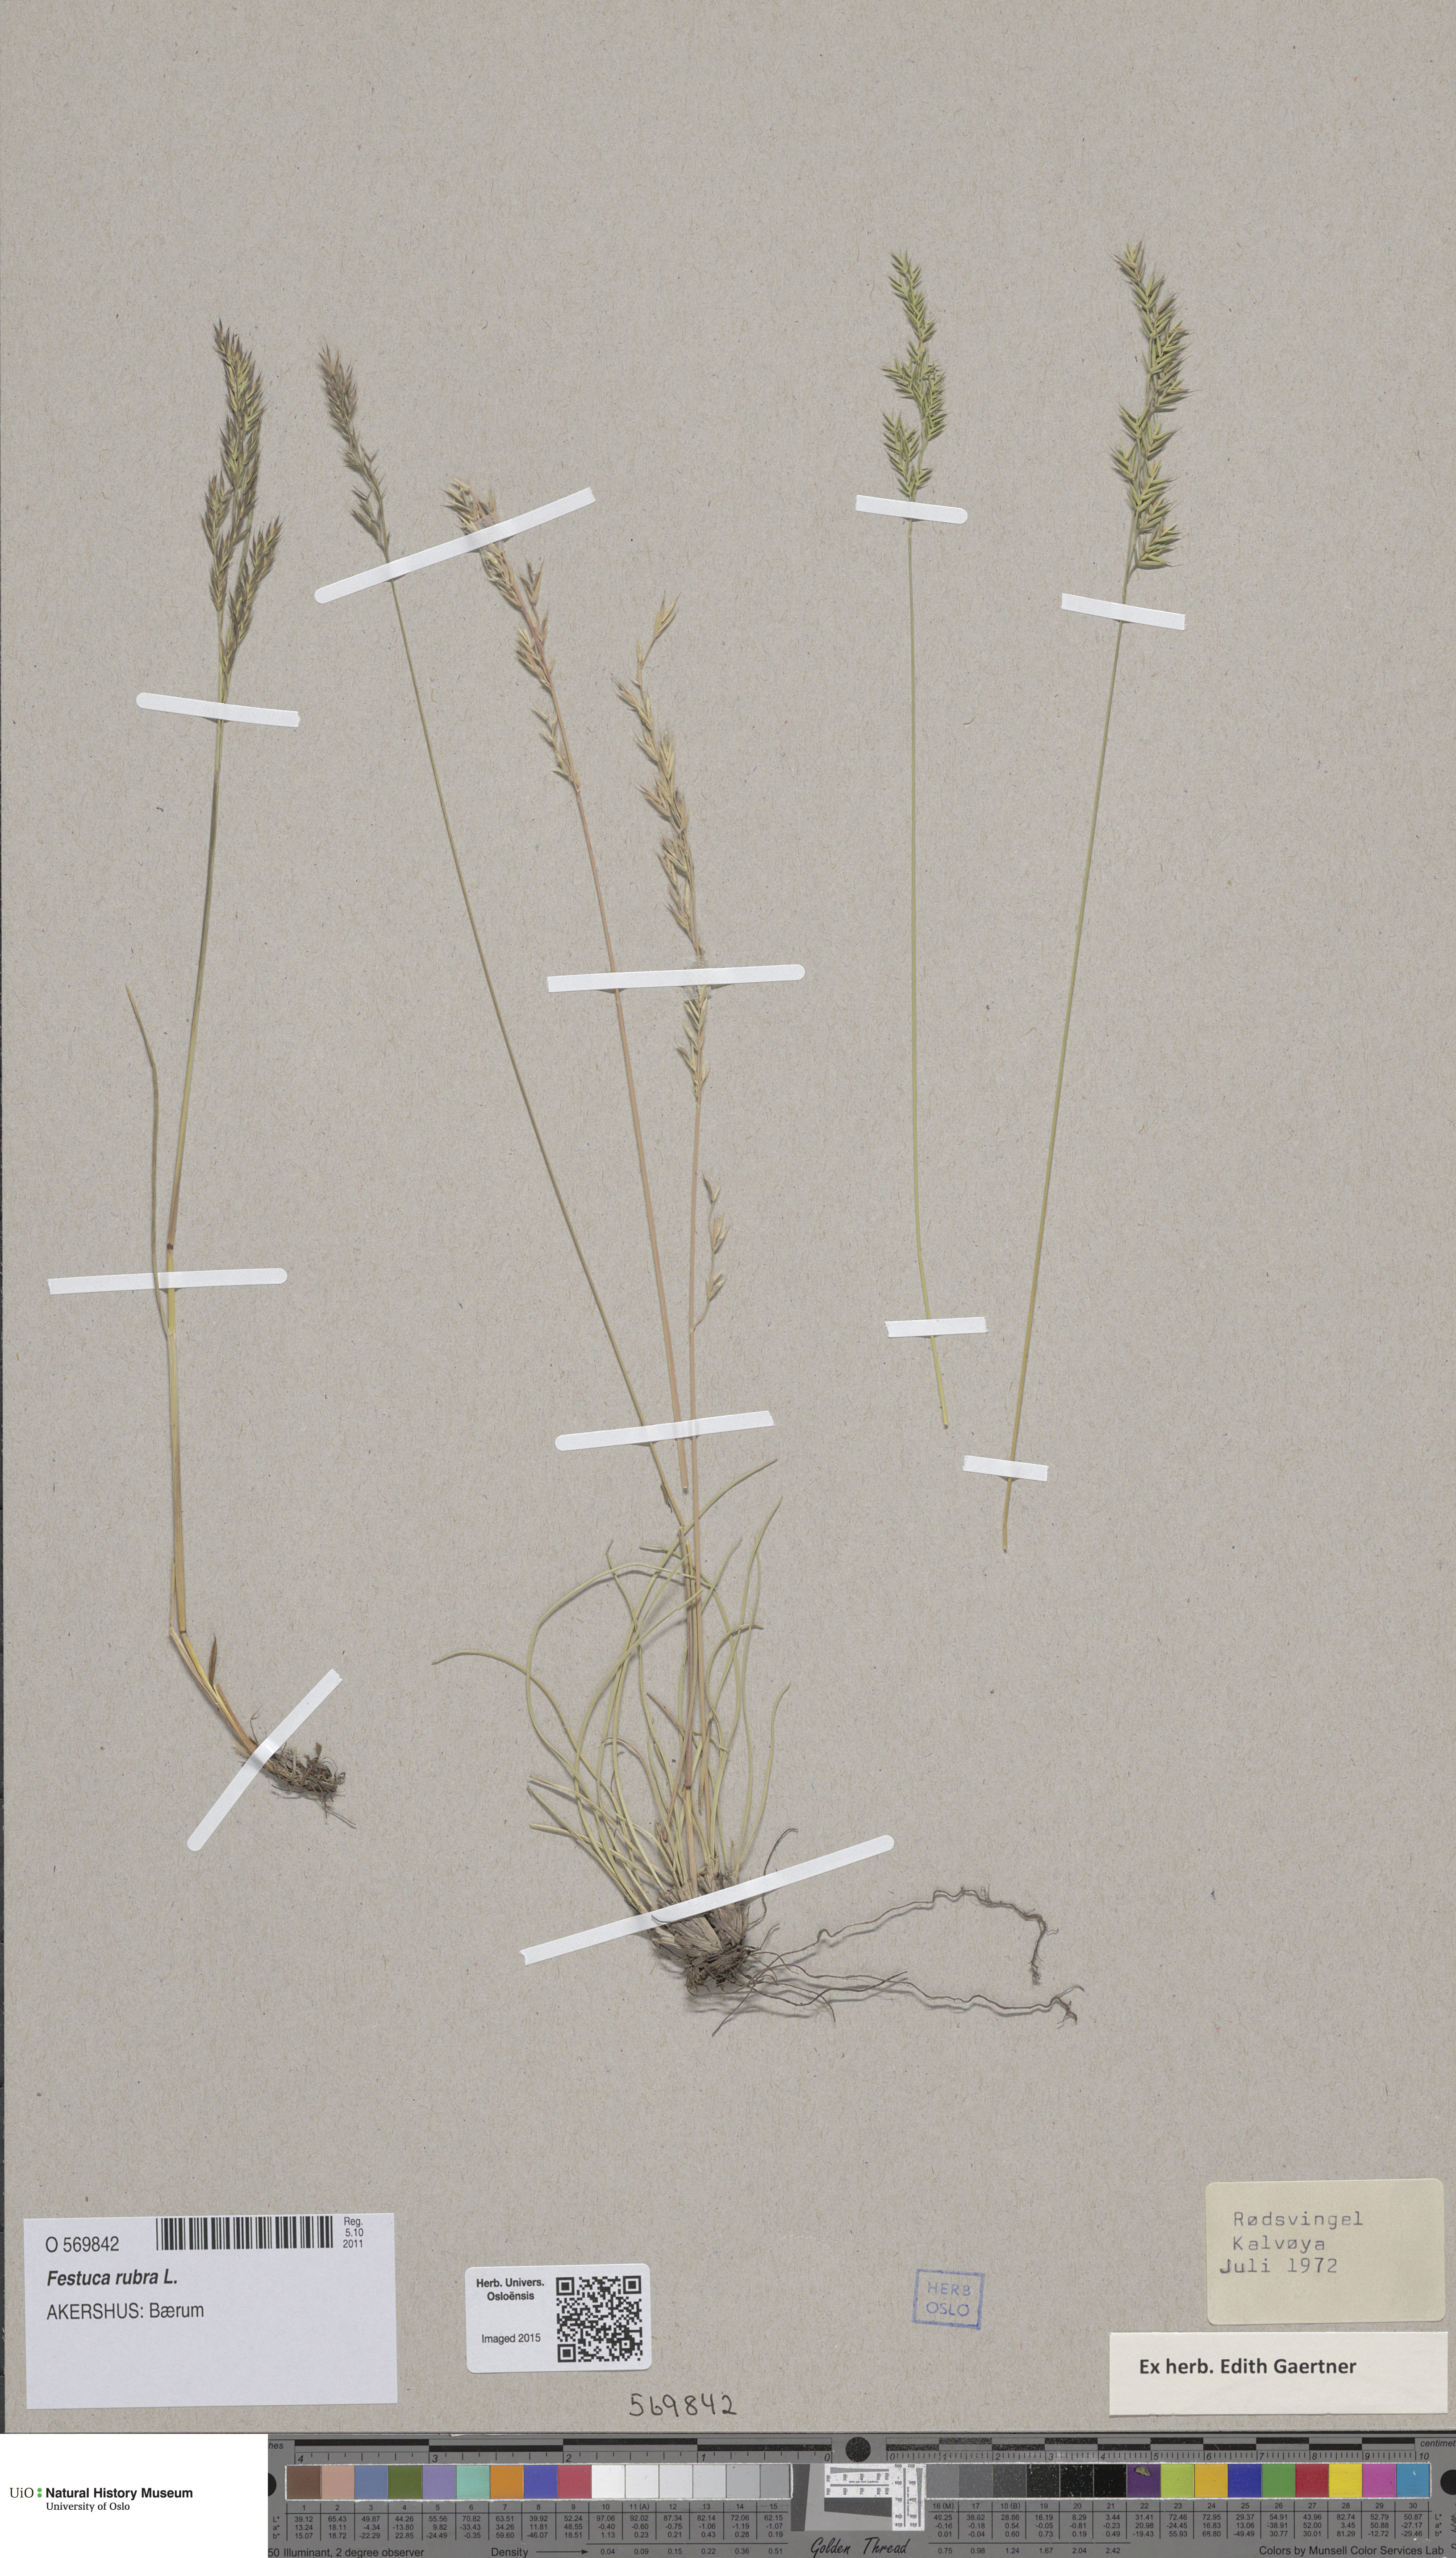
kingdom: Plantae
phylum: Tracheophyta
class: Liliopsida
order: Poales
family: Poaceae
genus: Festuca
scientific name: Festuca rubra
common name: Red fescue
